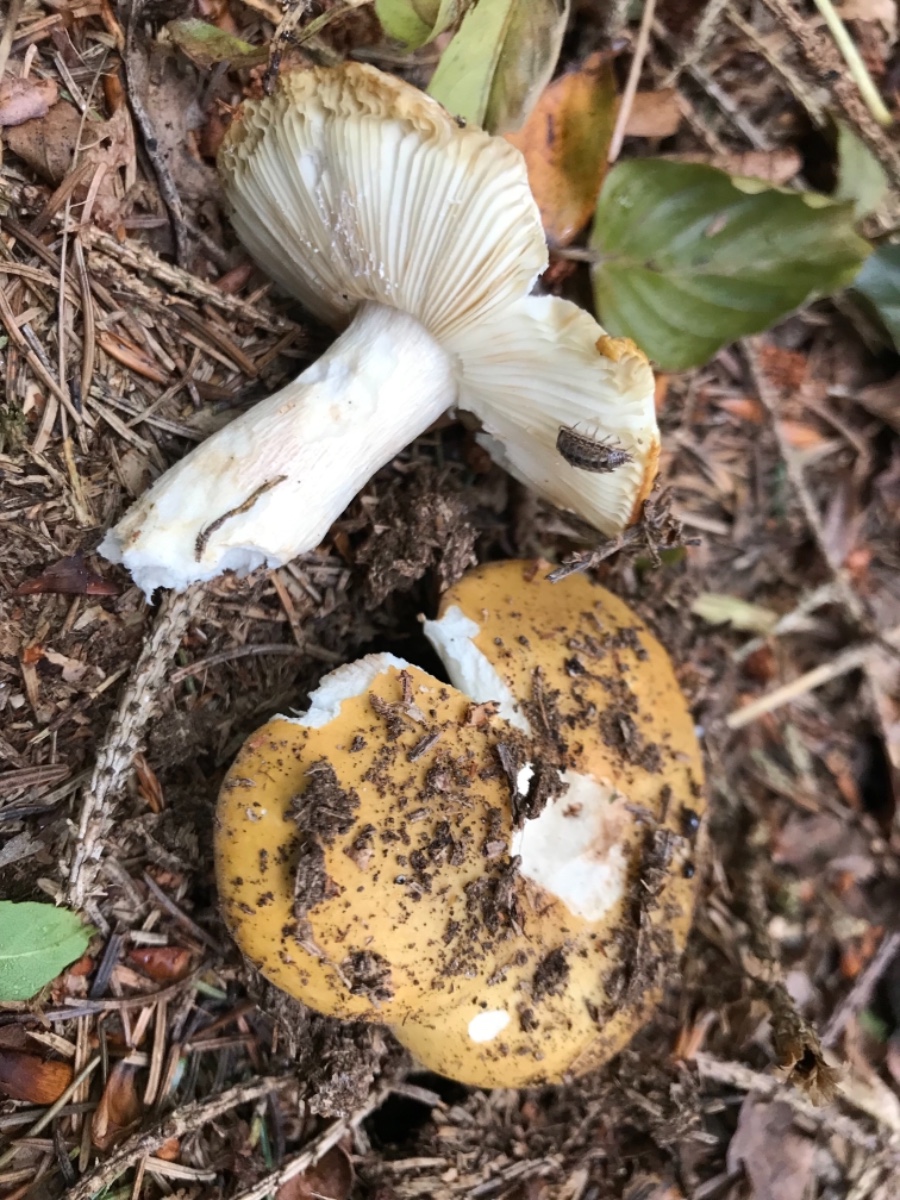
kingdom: Fungi
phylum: Basidiomycota
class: Agaricomycetes
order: Russulales
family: Russulaceae
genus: Russula
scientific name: Russula ochroleuca
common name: okkergul skørhat
